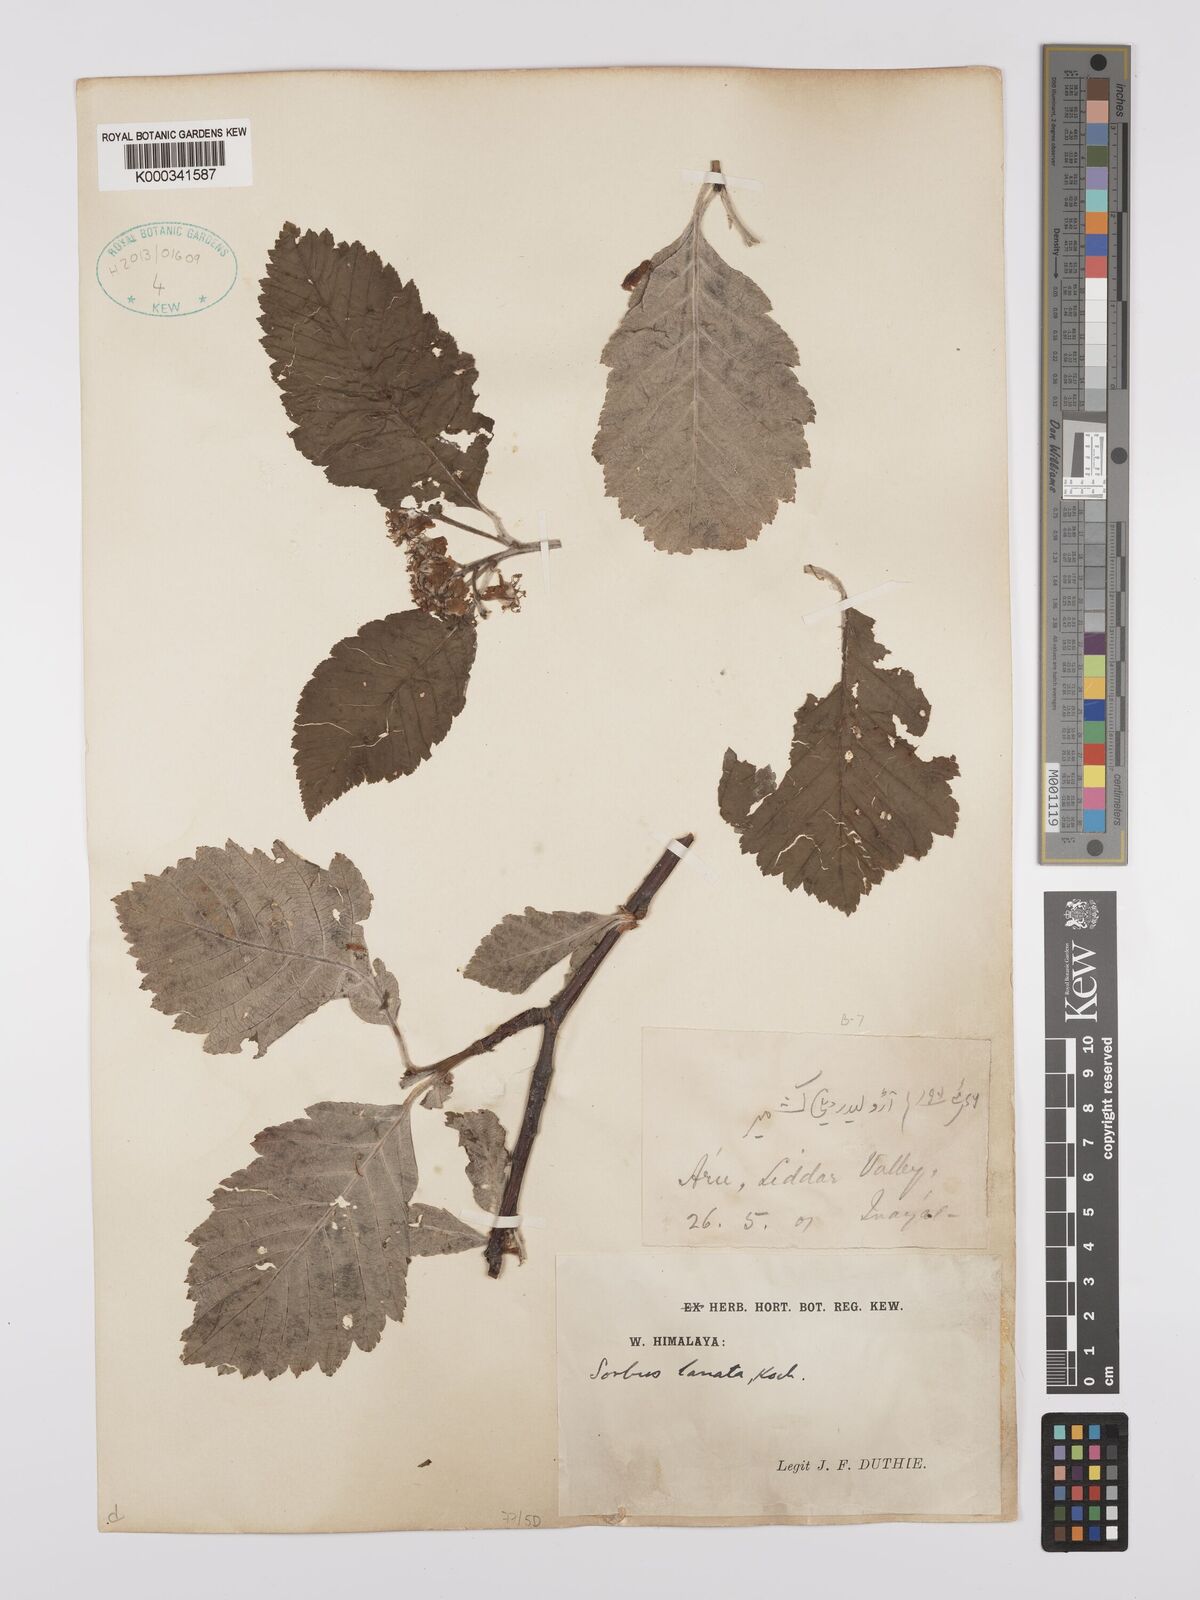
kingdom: Plantae
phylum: Tracheophyta
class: Magnoliopsida
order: Rosales
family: Rosaceae
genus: Sorbus
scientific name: Sorbus lanata
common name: Hairy rowan
